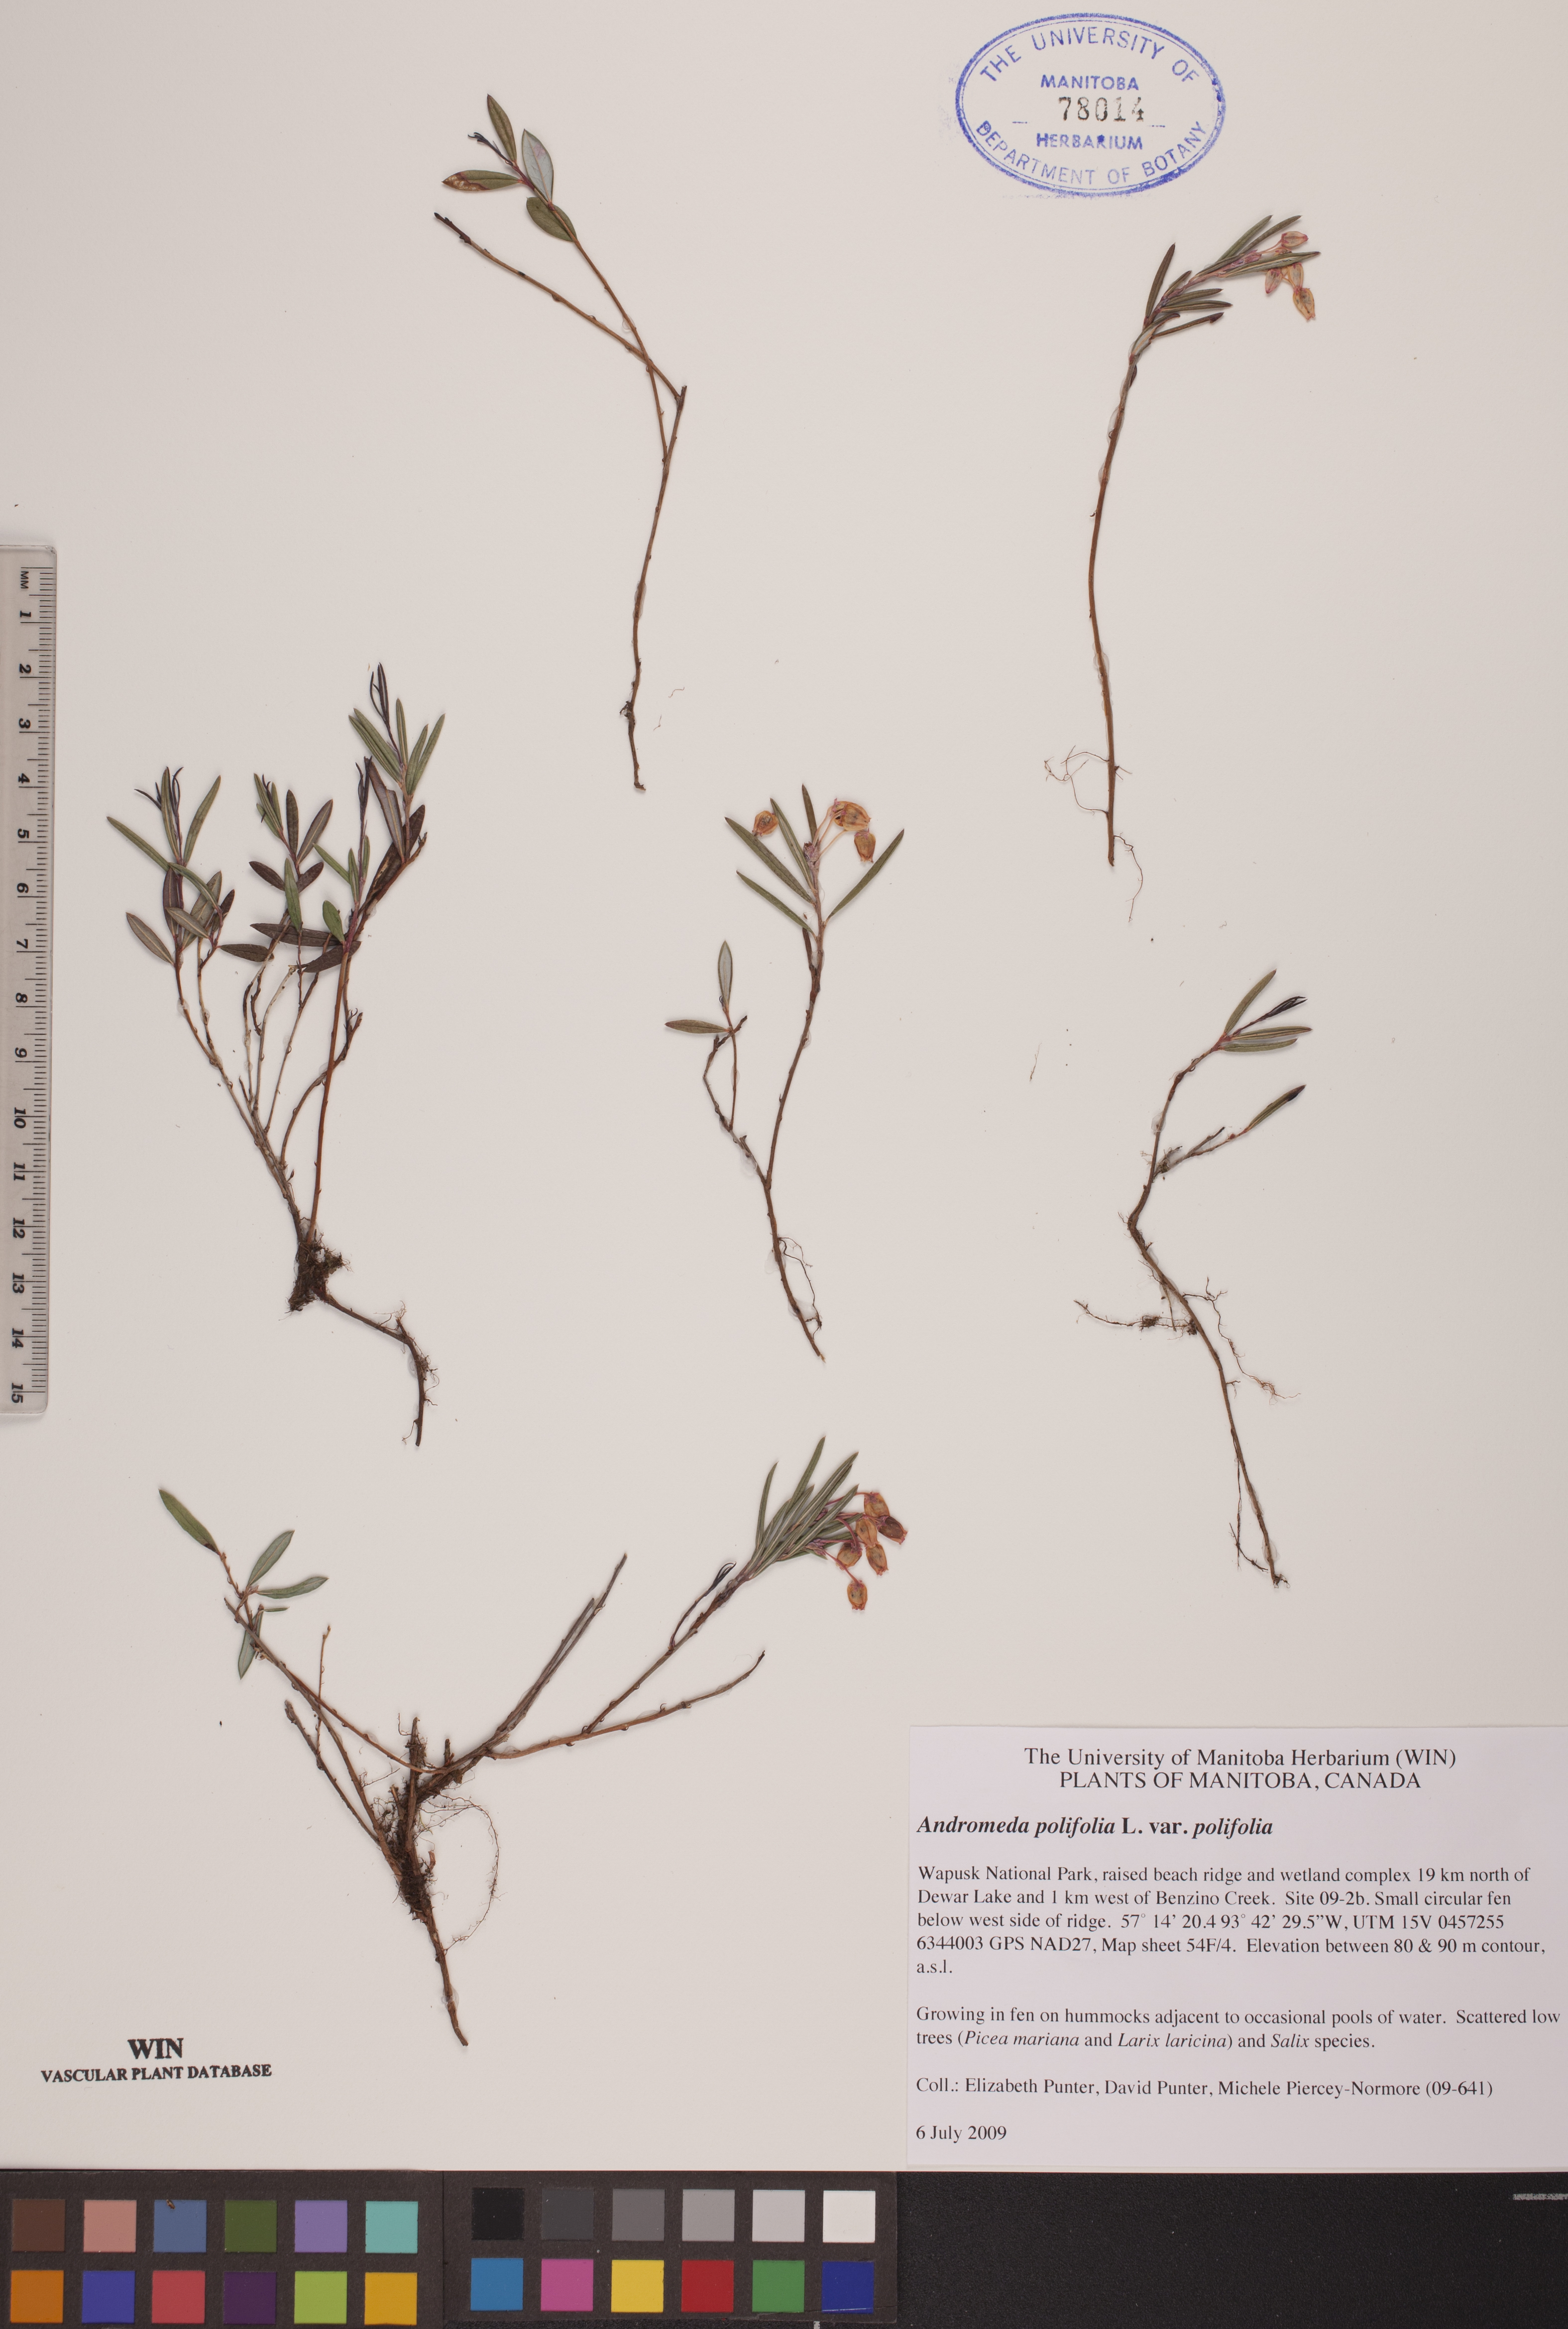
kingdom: Plantae
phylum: Tracheophyta
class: Magnoliopsida
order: Ericales
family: Ericaceae
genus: Andromeda
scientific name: Andromeda polifolia
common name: Bog-rosemary
